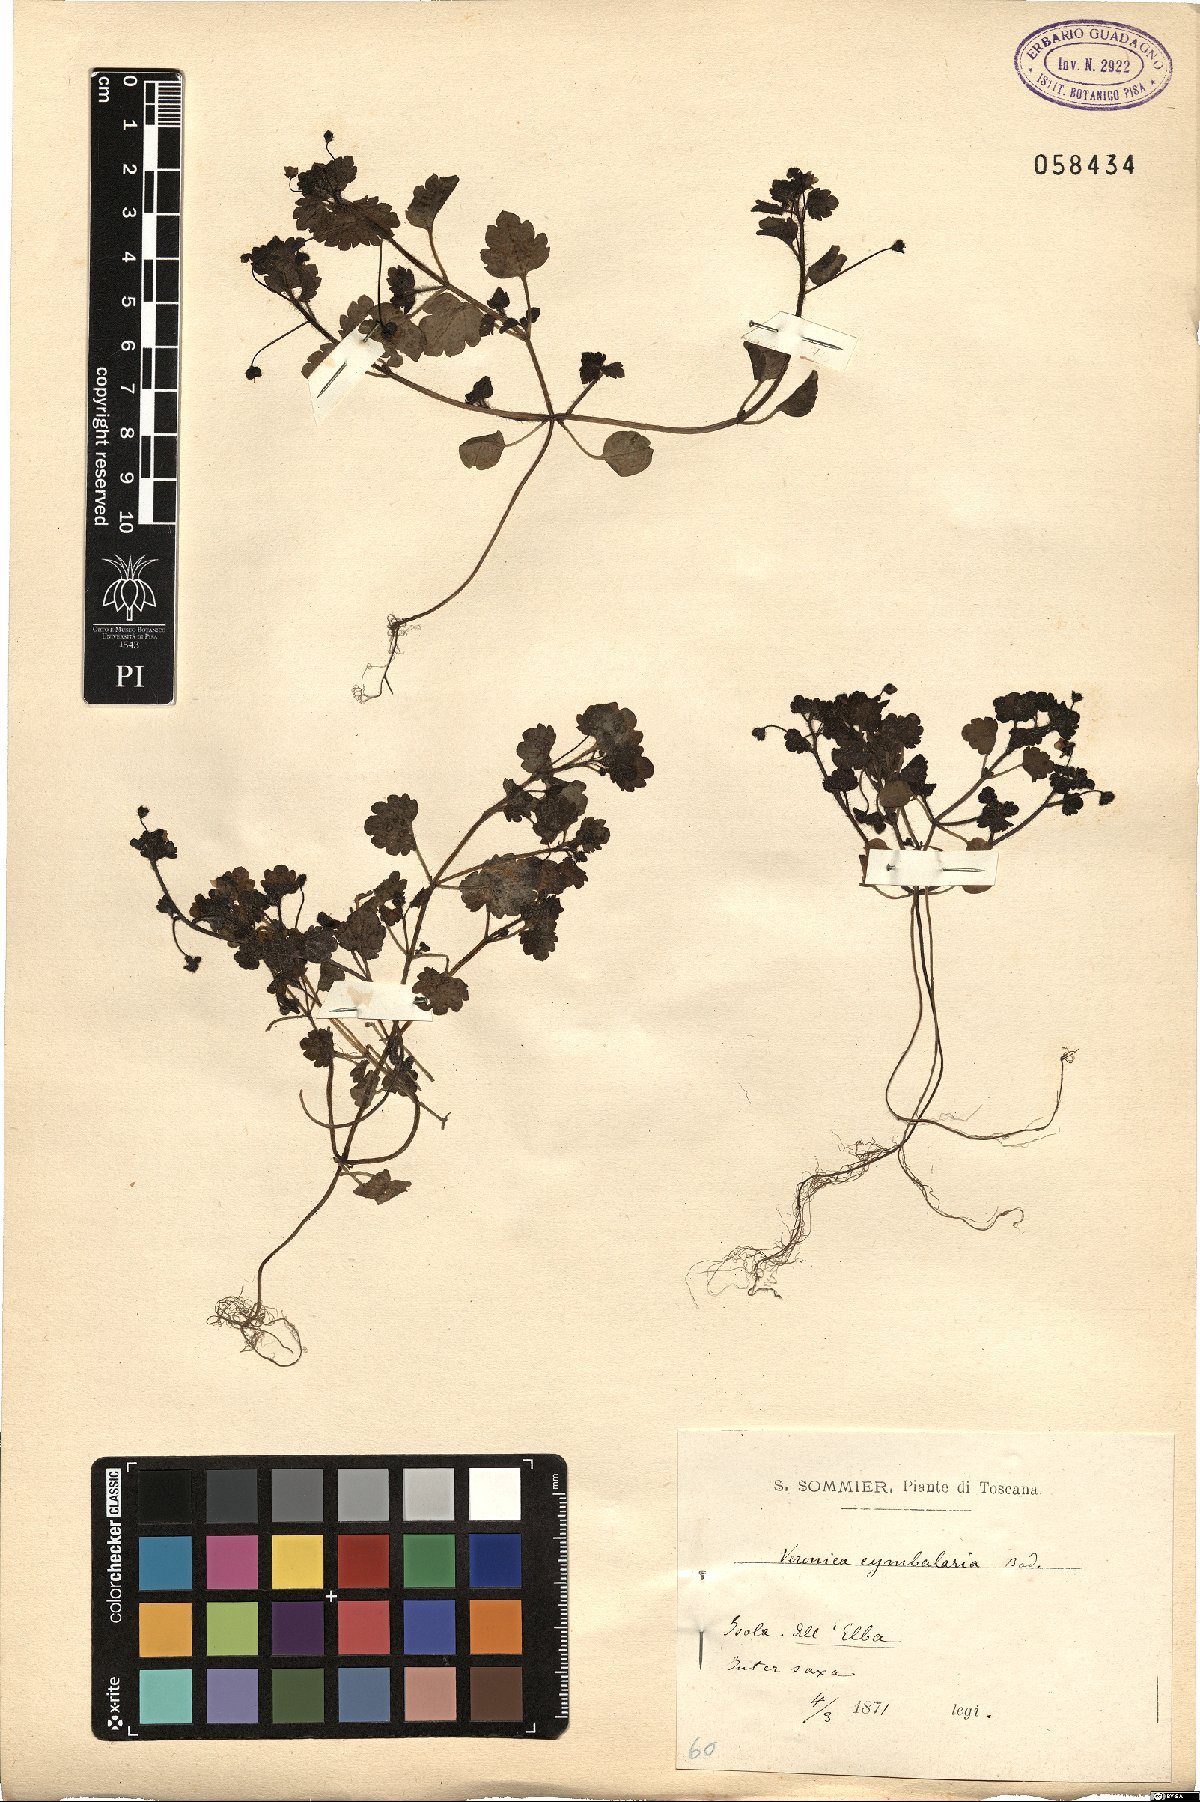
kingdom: Plantae
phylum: Tracheophyta
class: Magnoliopsida
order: Lamiales
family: Plantaginaceae
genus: Veronica
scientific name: Veronica cymbalaria
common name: Pale speedwell
